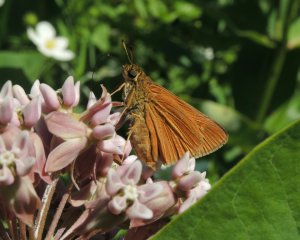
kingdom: Animalia
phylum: Arthropoda
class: Insecta
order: Lepidoptera
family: Hesperiidae
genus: Euphyes
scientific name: Euphyes dion
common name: Dion Skipper
